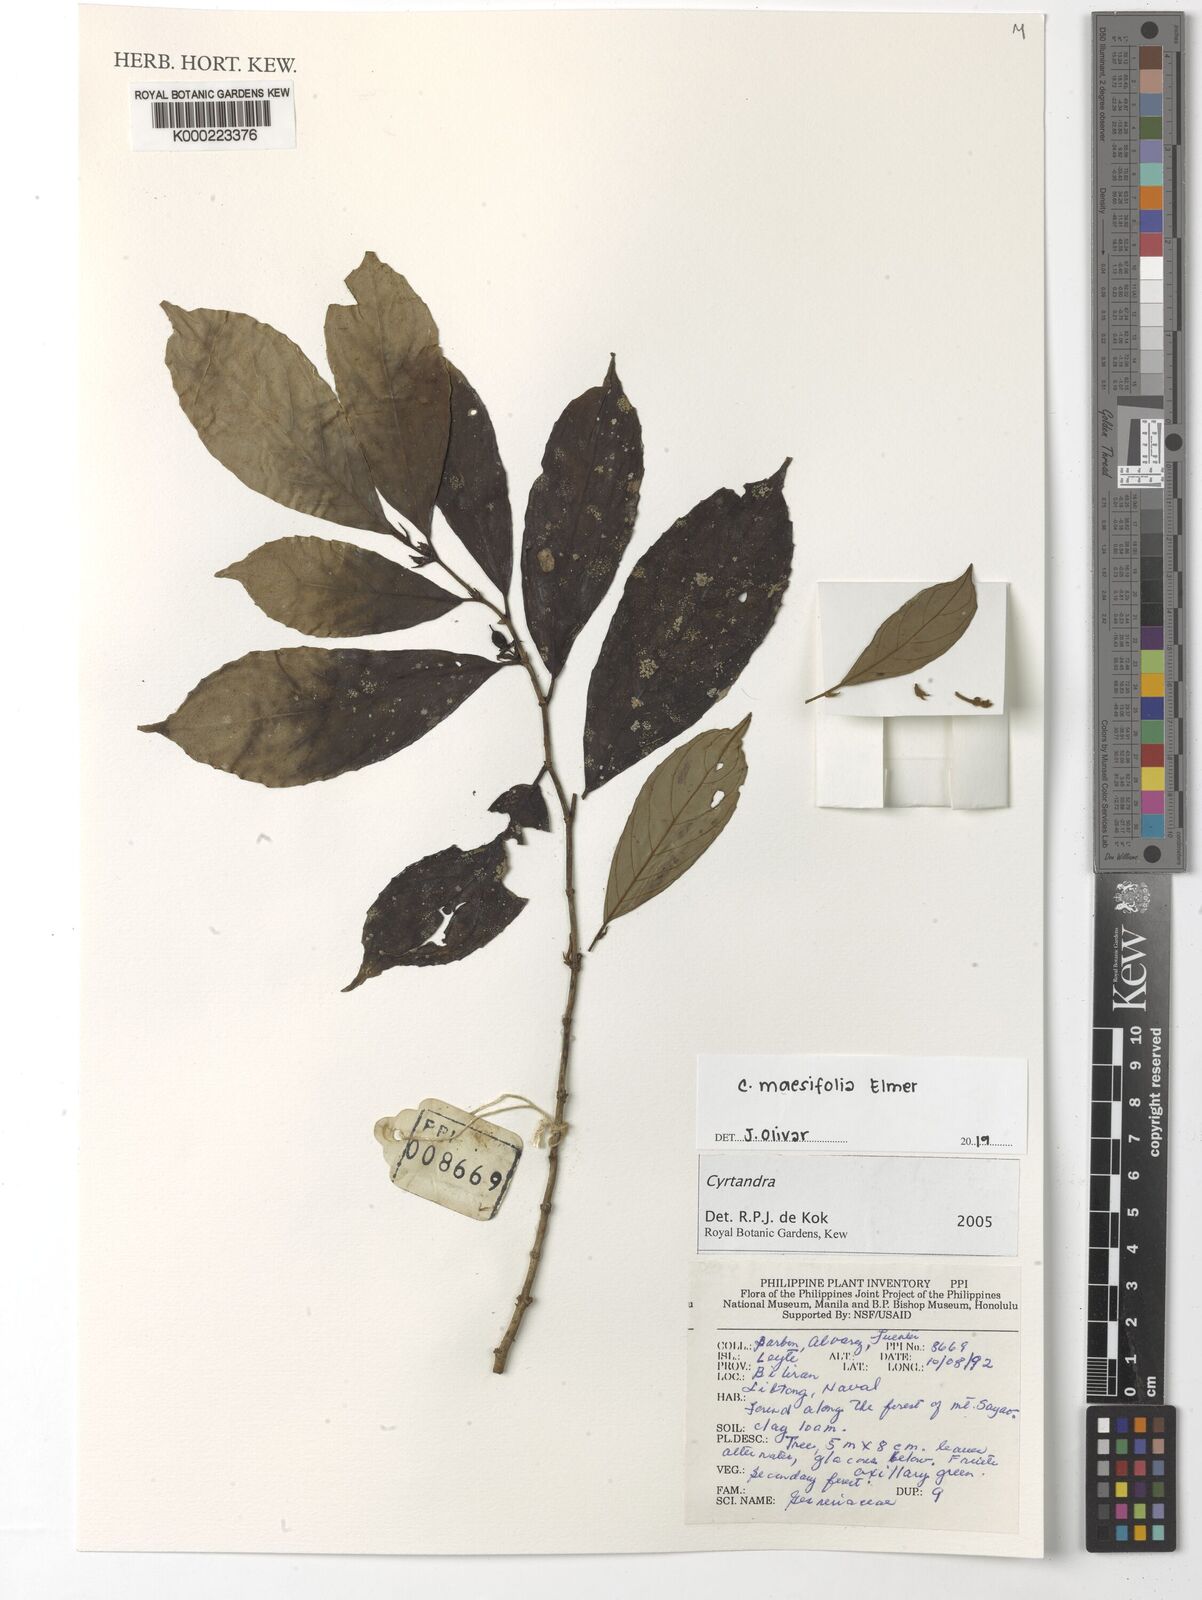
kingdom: Plantae
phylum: Tracheophyta
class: Magnoliopsida
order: Lamiales
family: Gesneriaceae
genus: Cyrtandra
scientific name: Cyrtandra
